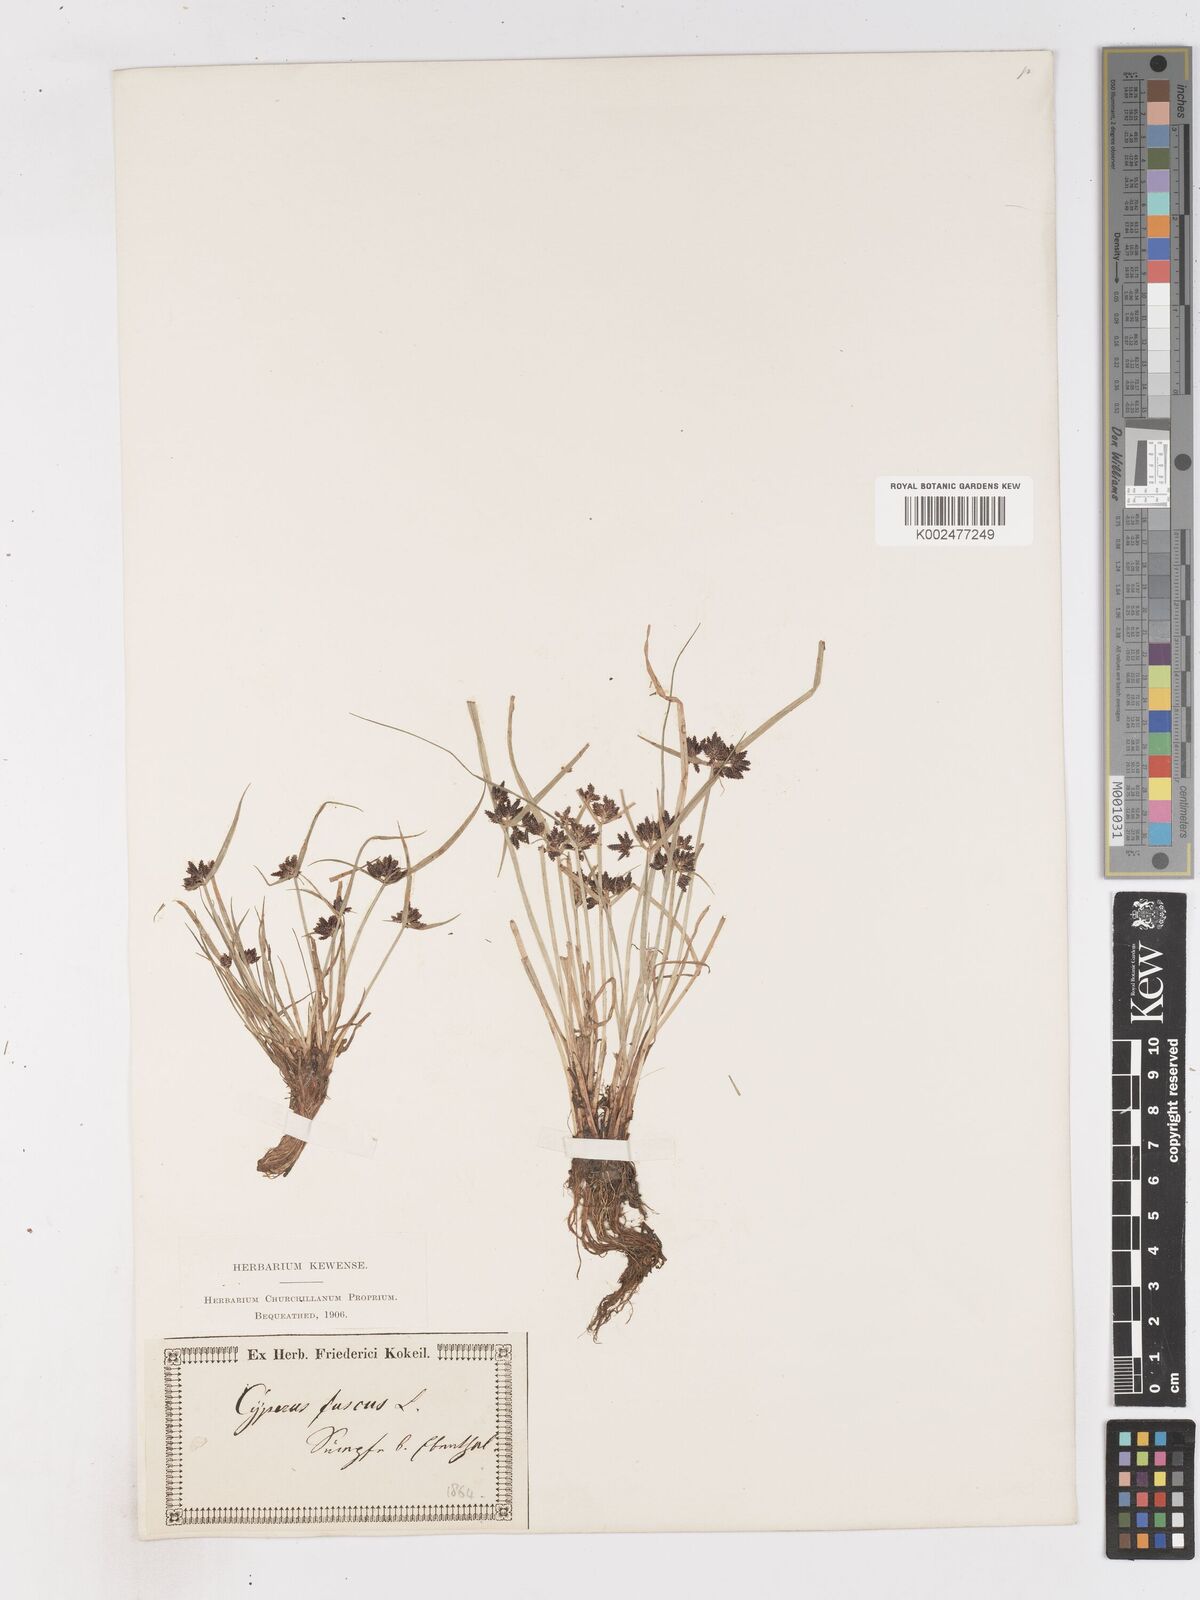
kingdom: Plantae
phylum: Tracheophyta
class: Liliopsida
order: Poales
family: Cyperaceae
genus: Cyperus
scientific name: Cyperus fuscus
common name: Brown galingale
